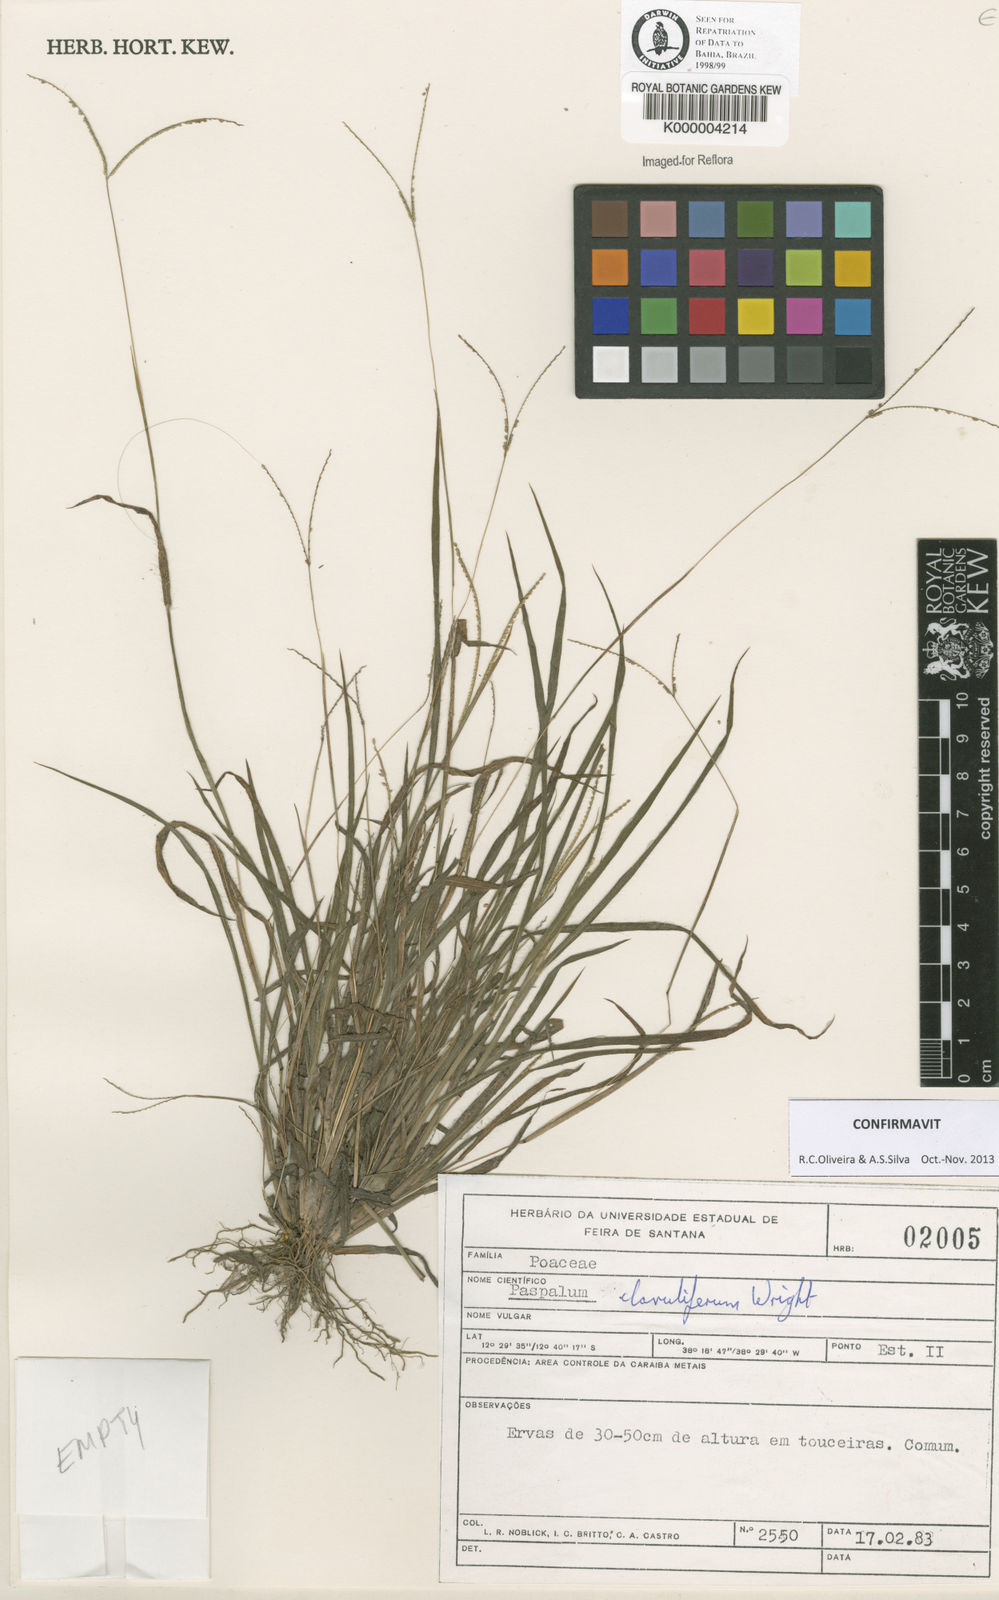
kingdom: Plantae
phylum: Tracheophyta
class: Liliopsida
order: Poales
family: Poaceae
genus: Paspalum
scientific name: Paspalum clavuliferum
